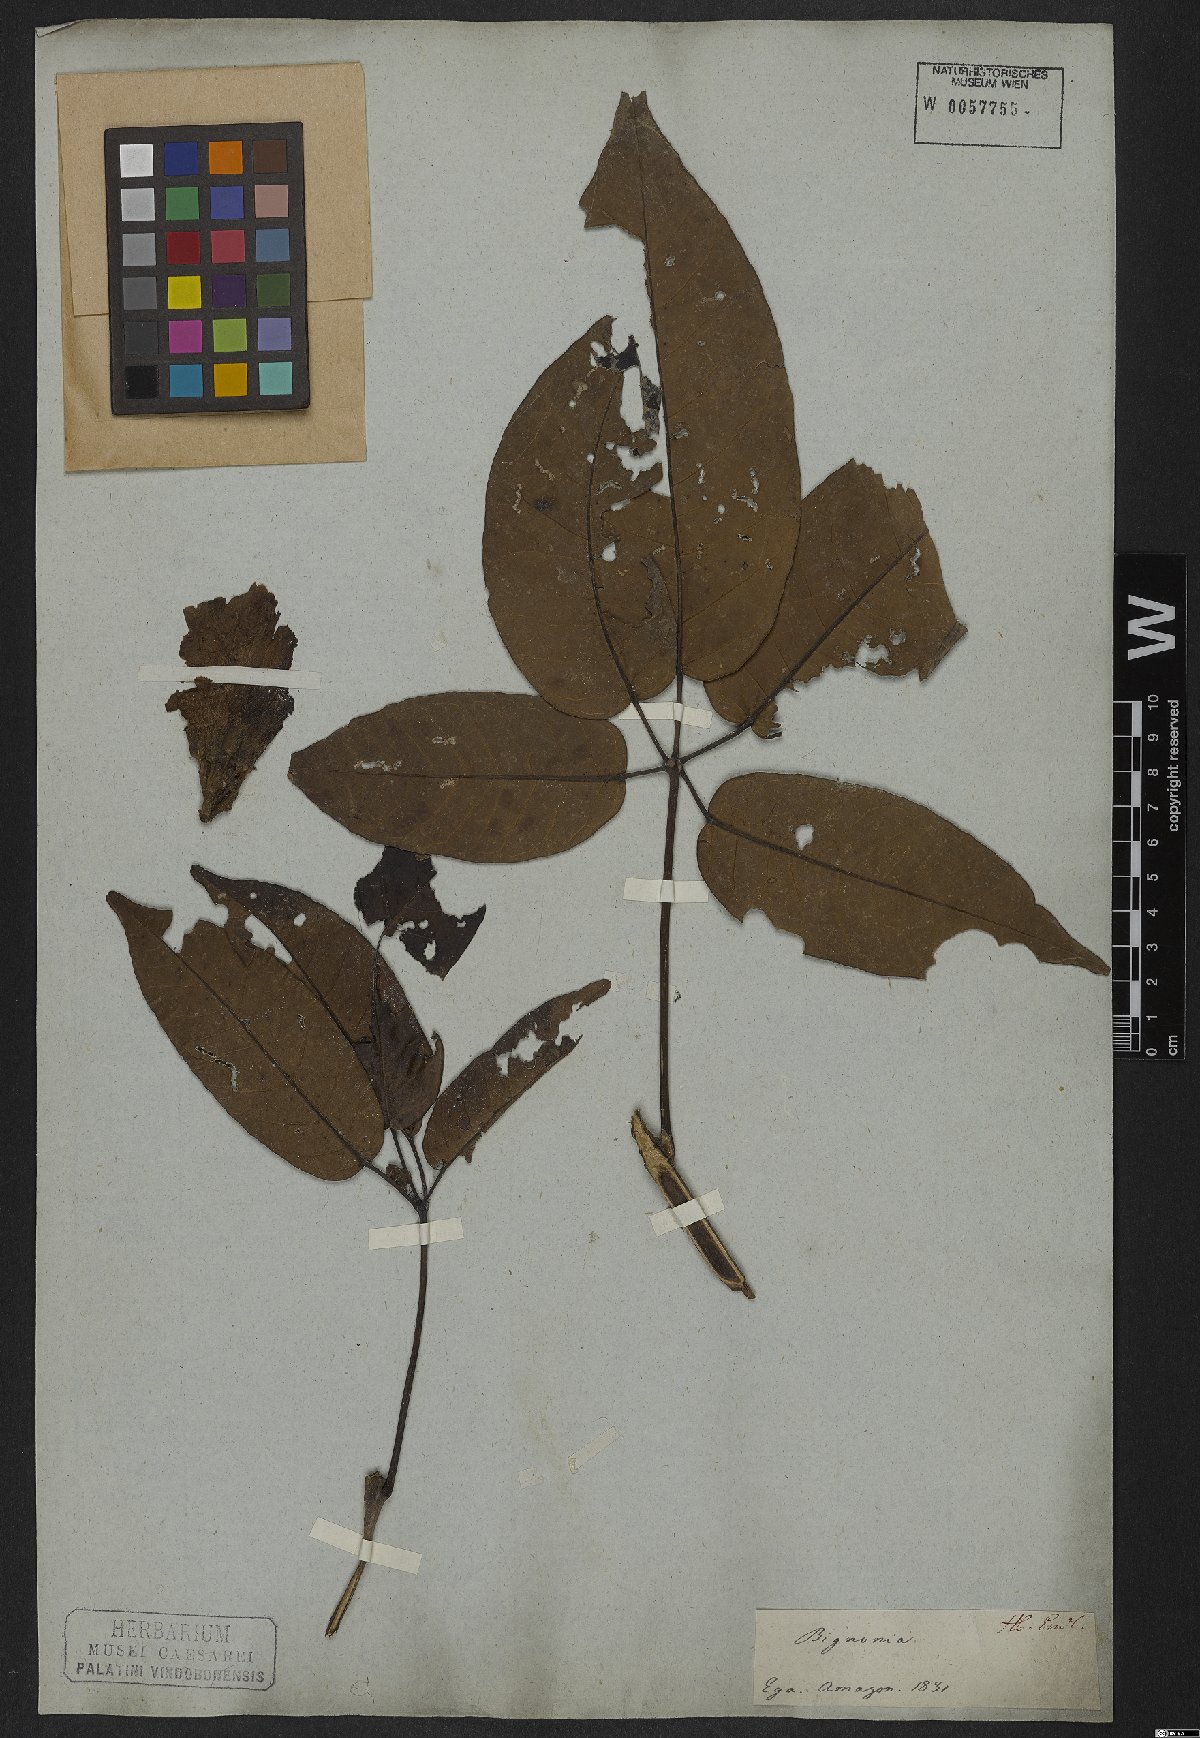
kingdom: Plantae
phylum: Tracheophyta
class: Magnoliopsida
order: Lamiales
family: Bignoniaceae
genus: Tabebuia
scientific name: Tabebuia fluviatilis
